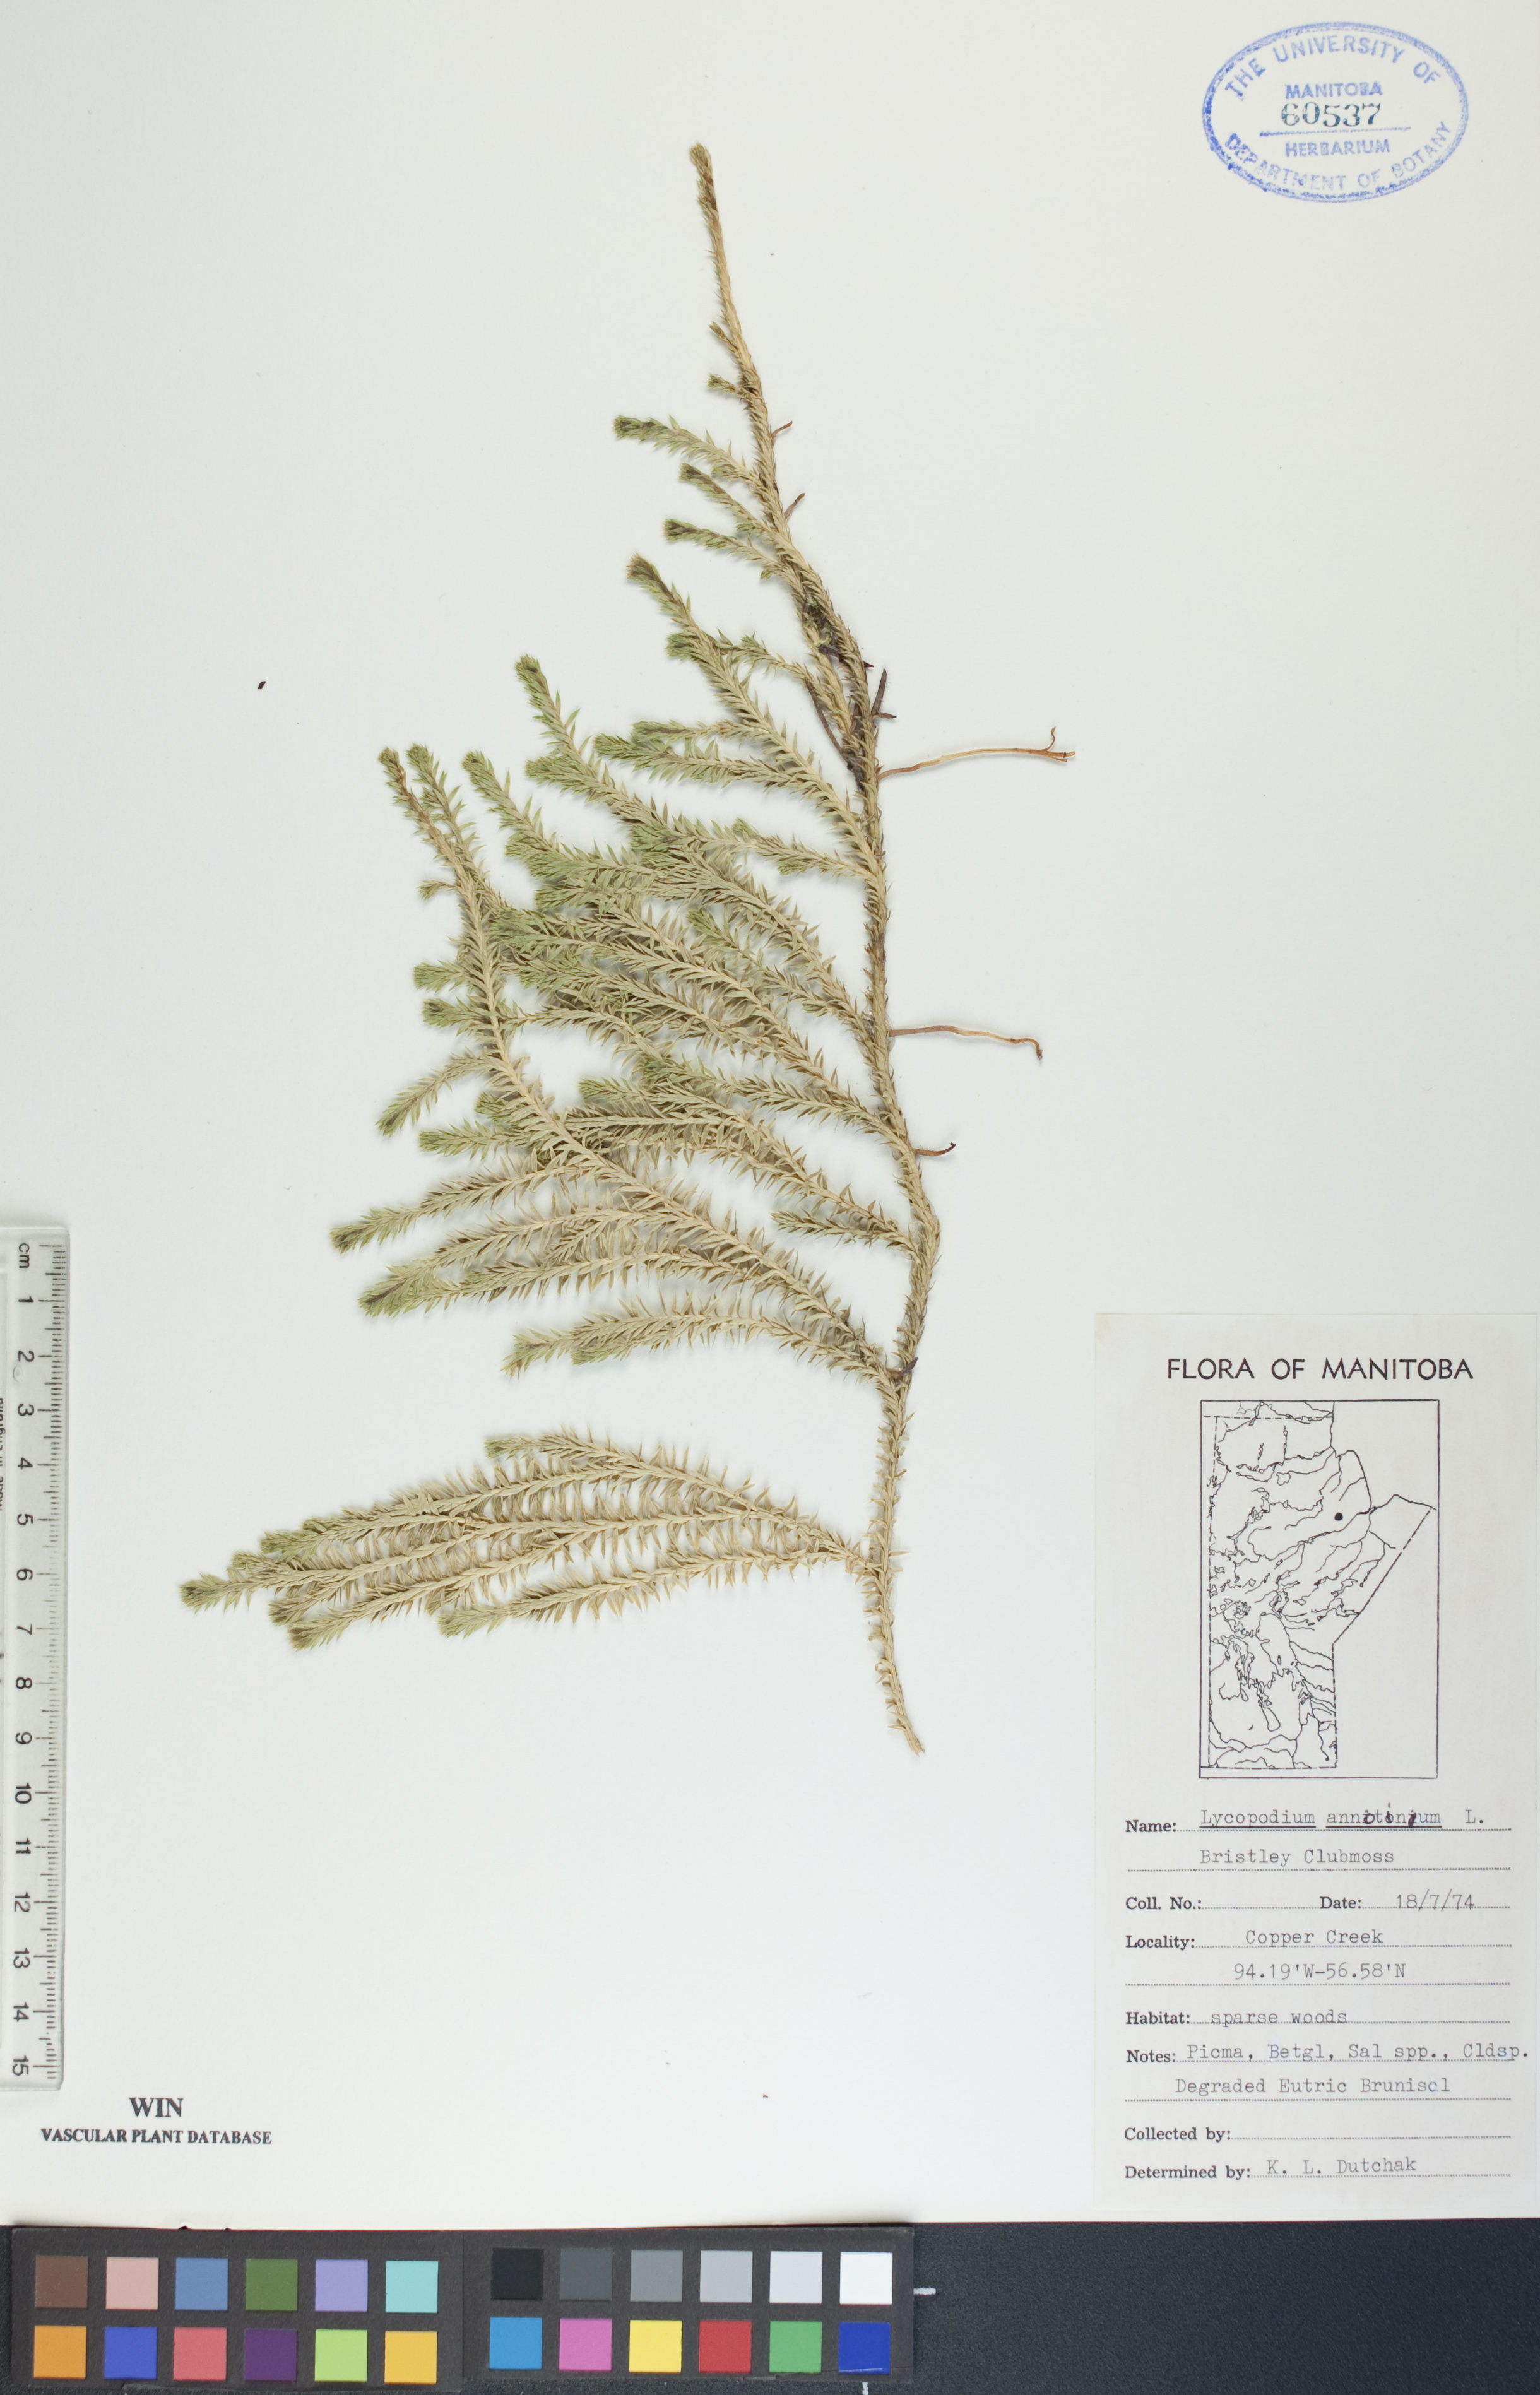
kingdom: Plantae
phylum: Tracheophyta
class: Lycopodiopsida
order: Lycopodiales
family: Lycopodiaceae
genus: Spinulum
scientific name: Spinulum annotinum
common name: Interrupted club-moss
